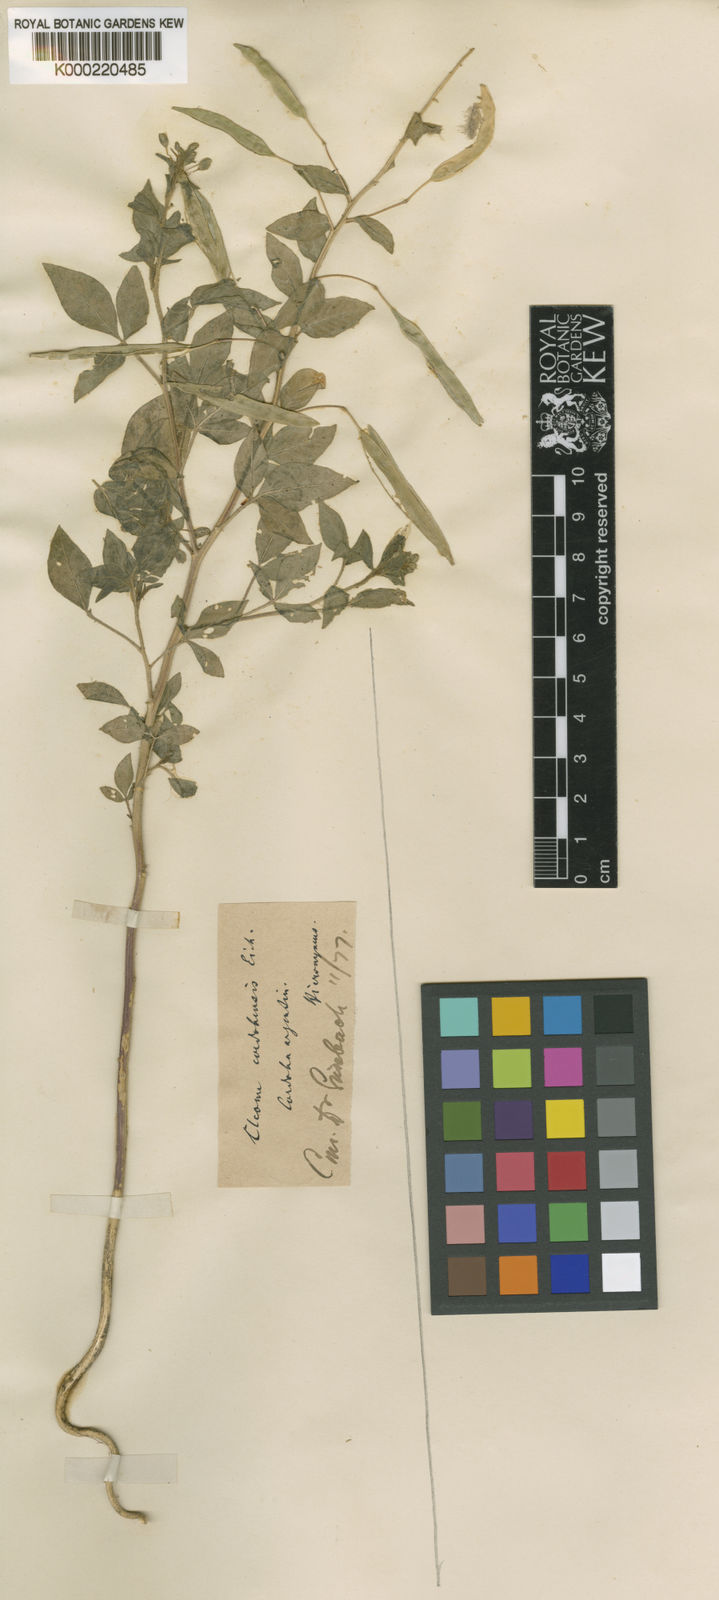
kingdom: Plantae
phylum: Tracheophyta
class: Magnoliopsida
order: Brassicales
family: Cleomaceae
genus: Tarenaya
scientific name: Tarenaya cordobensis
